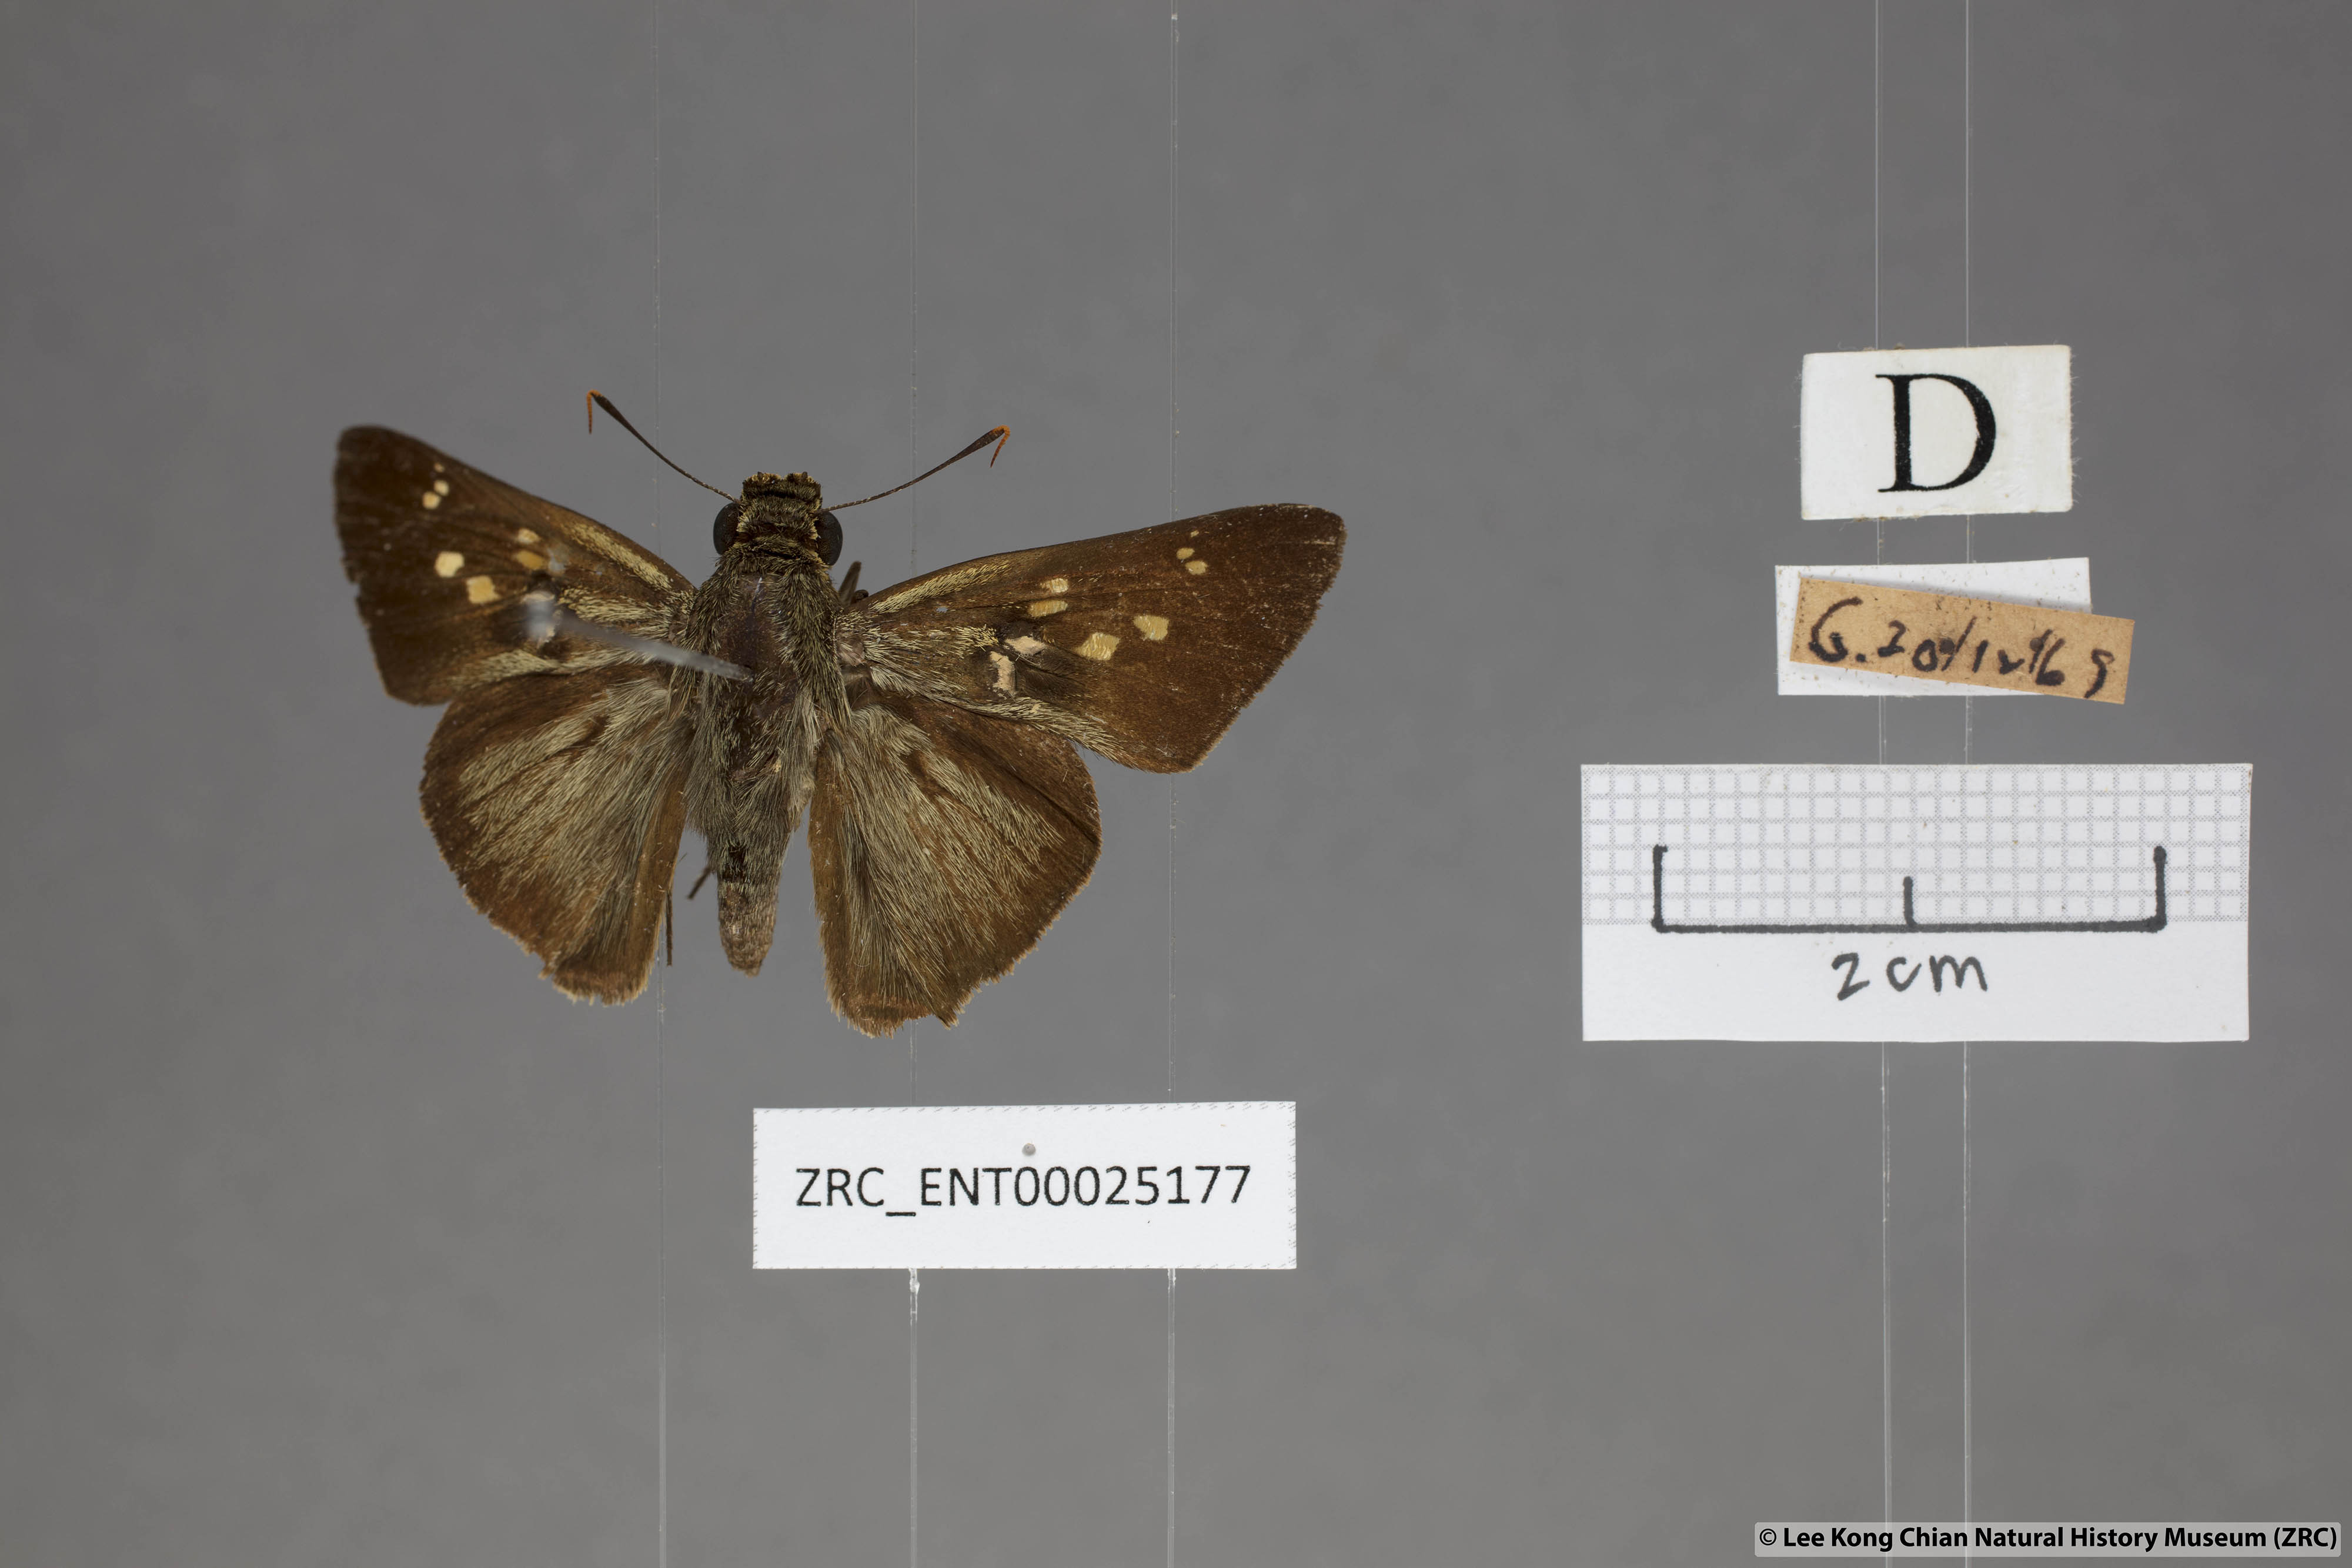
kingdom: Animalia
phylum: Arthropoda
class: Insecta
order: Lepidoptera
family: Hesperiidae
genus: Pithauria
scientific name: Pithauria marsena
